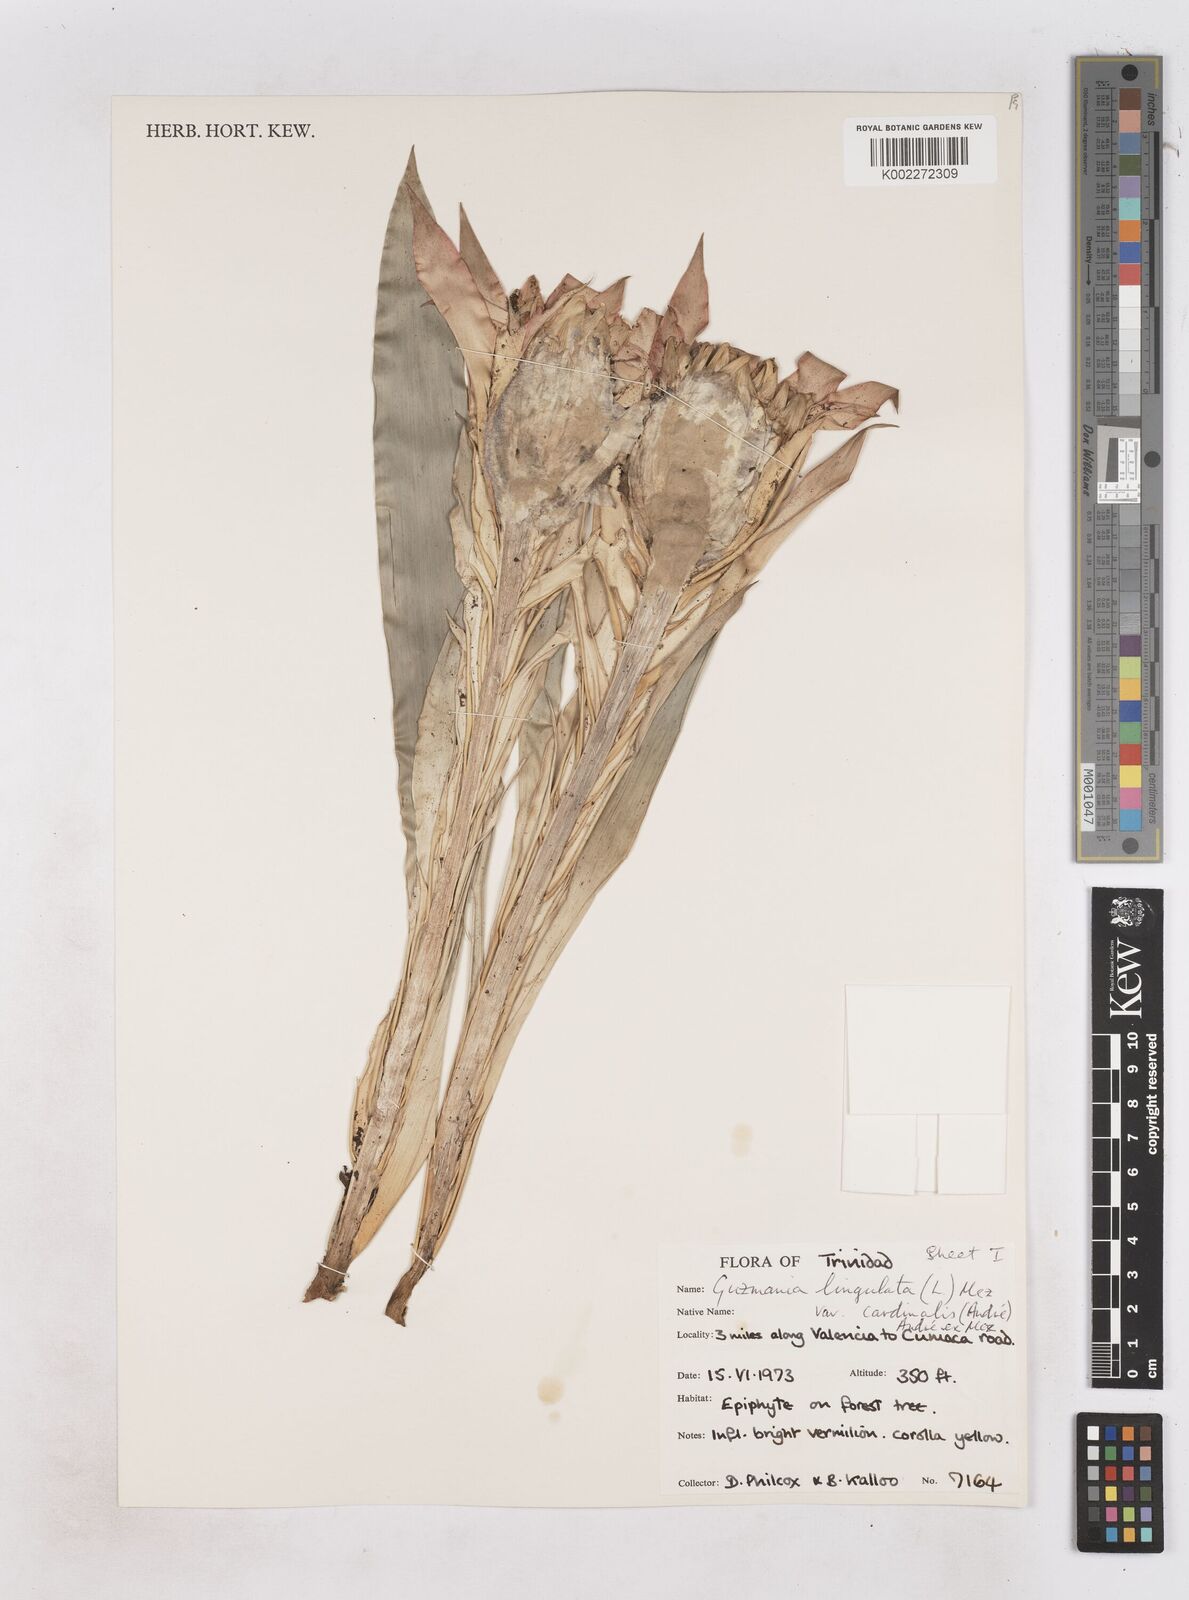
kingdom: Plantae
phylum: Tracheophyta
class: Liliopsida
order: Poales
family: Bromeliaceae
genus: Guzmania
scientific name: Guzmania lingulata
